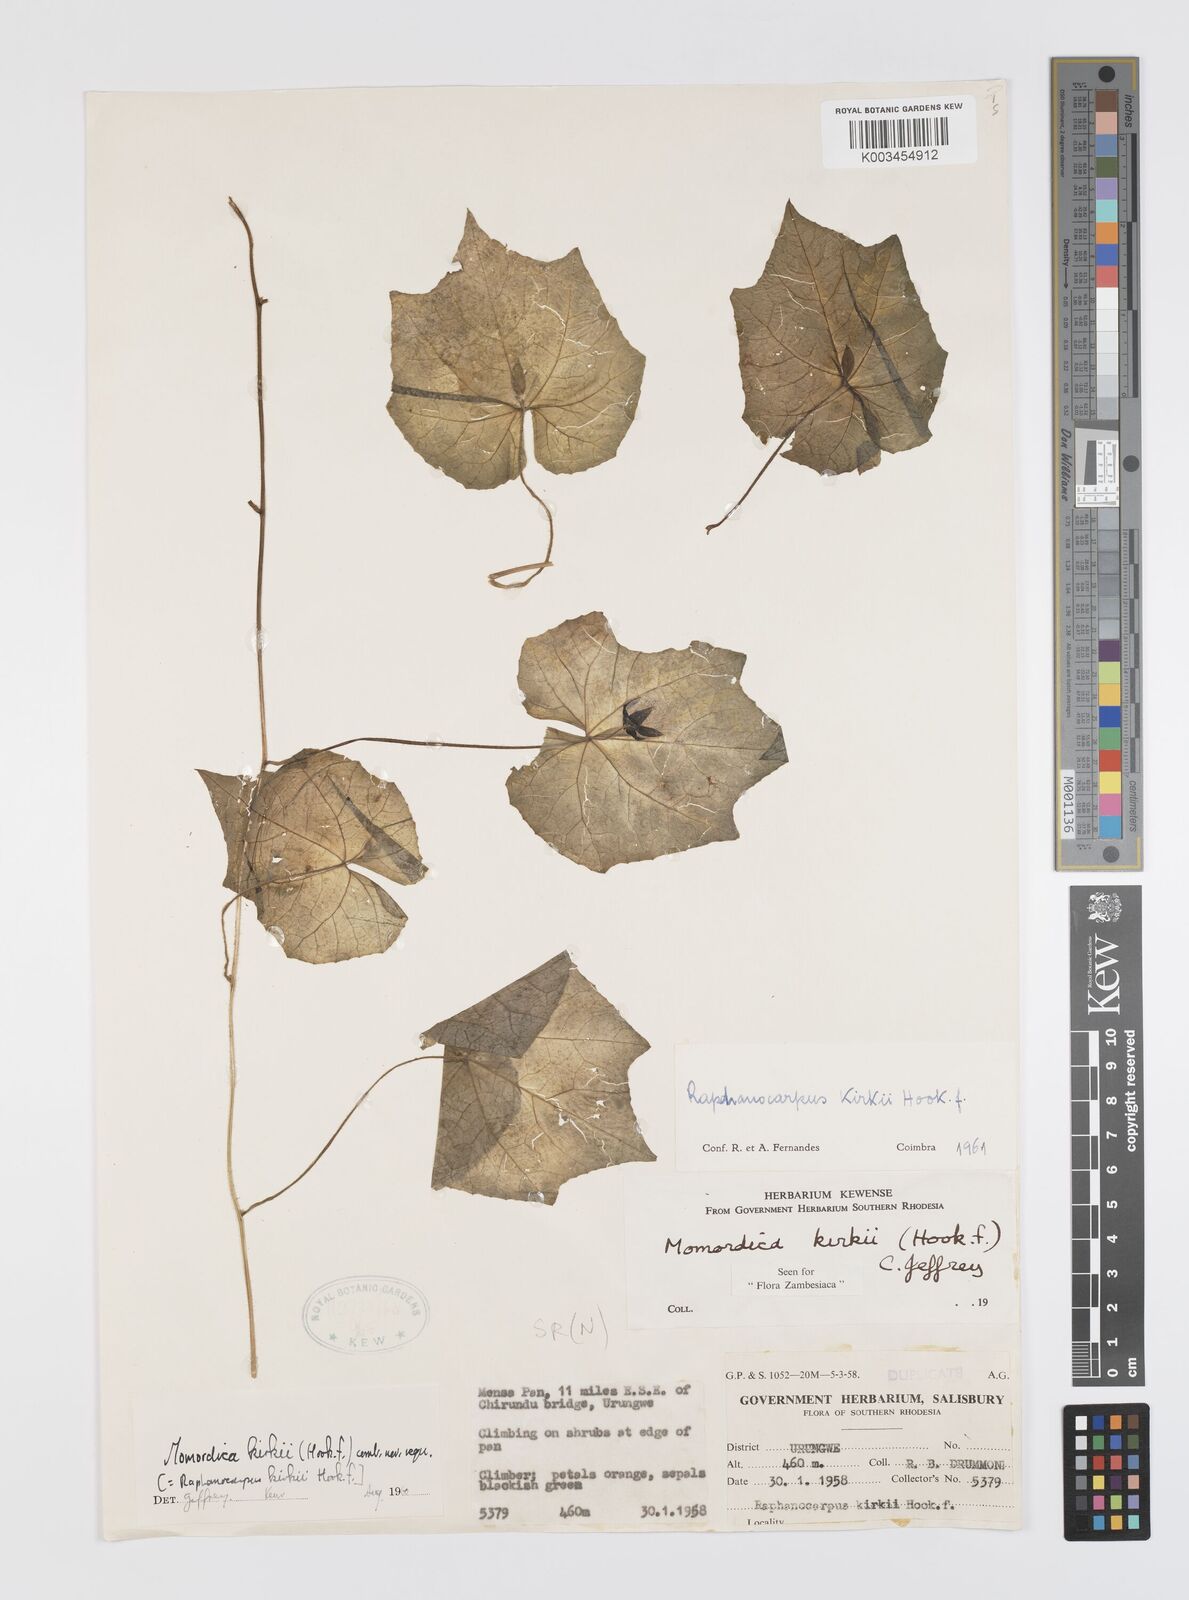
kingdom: Plantae
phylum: Tracheophyta
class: Magnoliopsida
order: Cucurbitales
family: Cucurbitaceae
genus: Momordica
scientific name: Momordica kirkii
